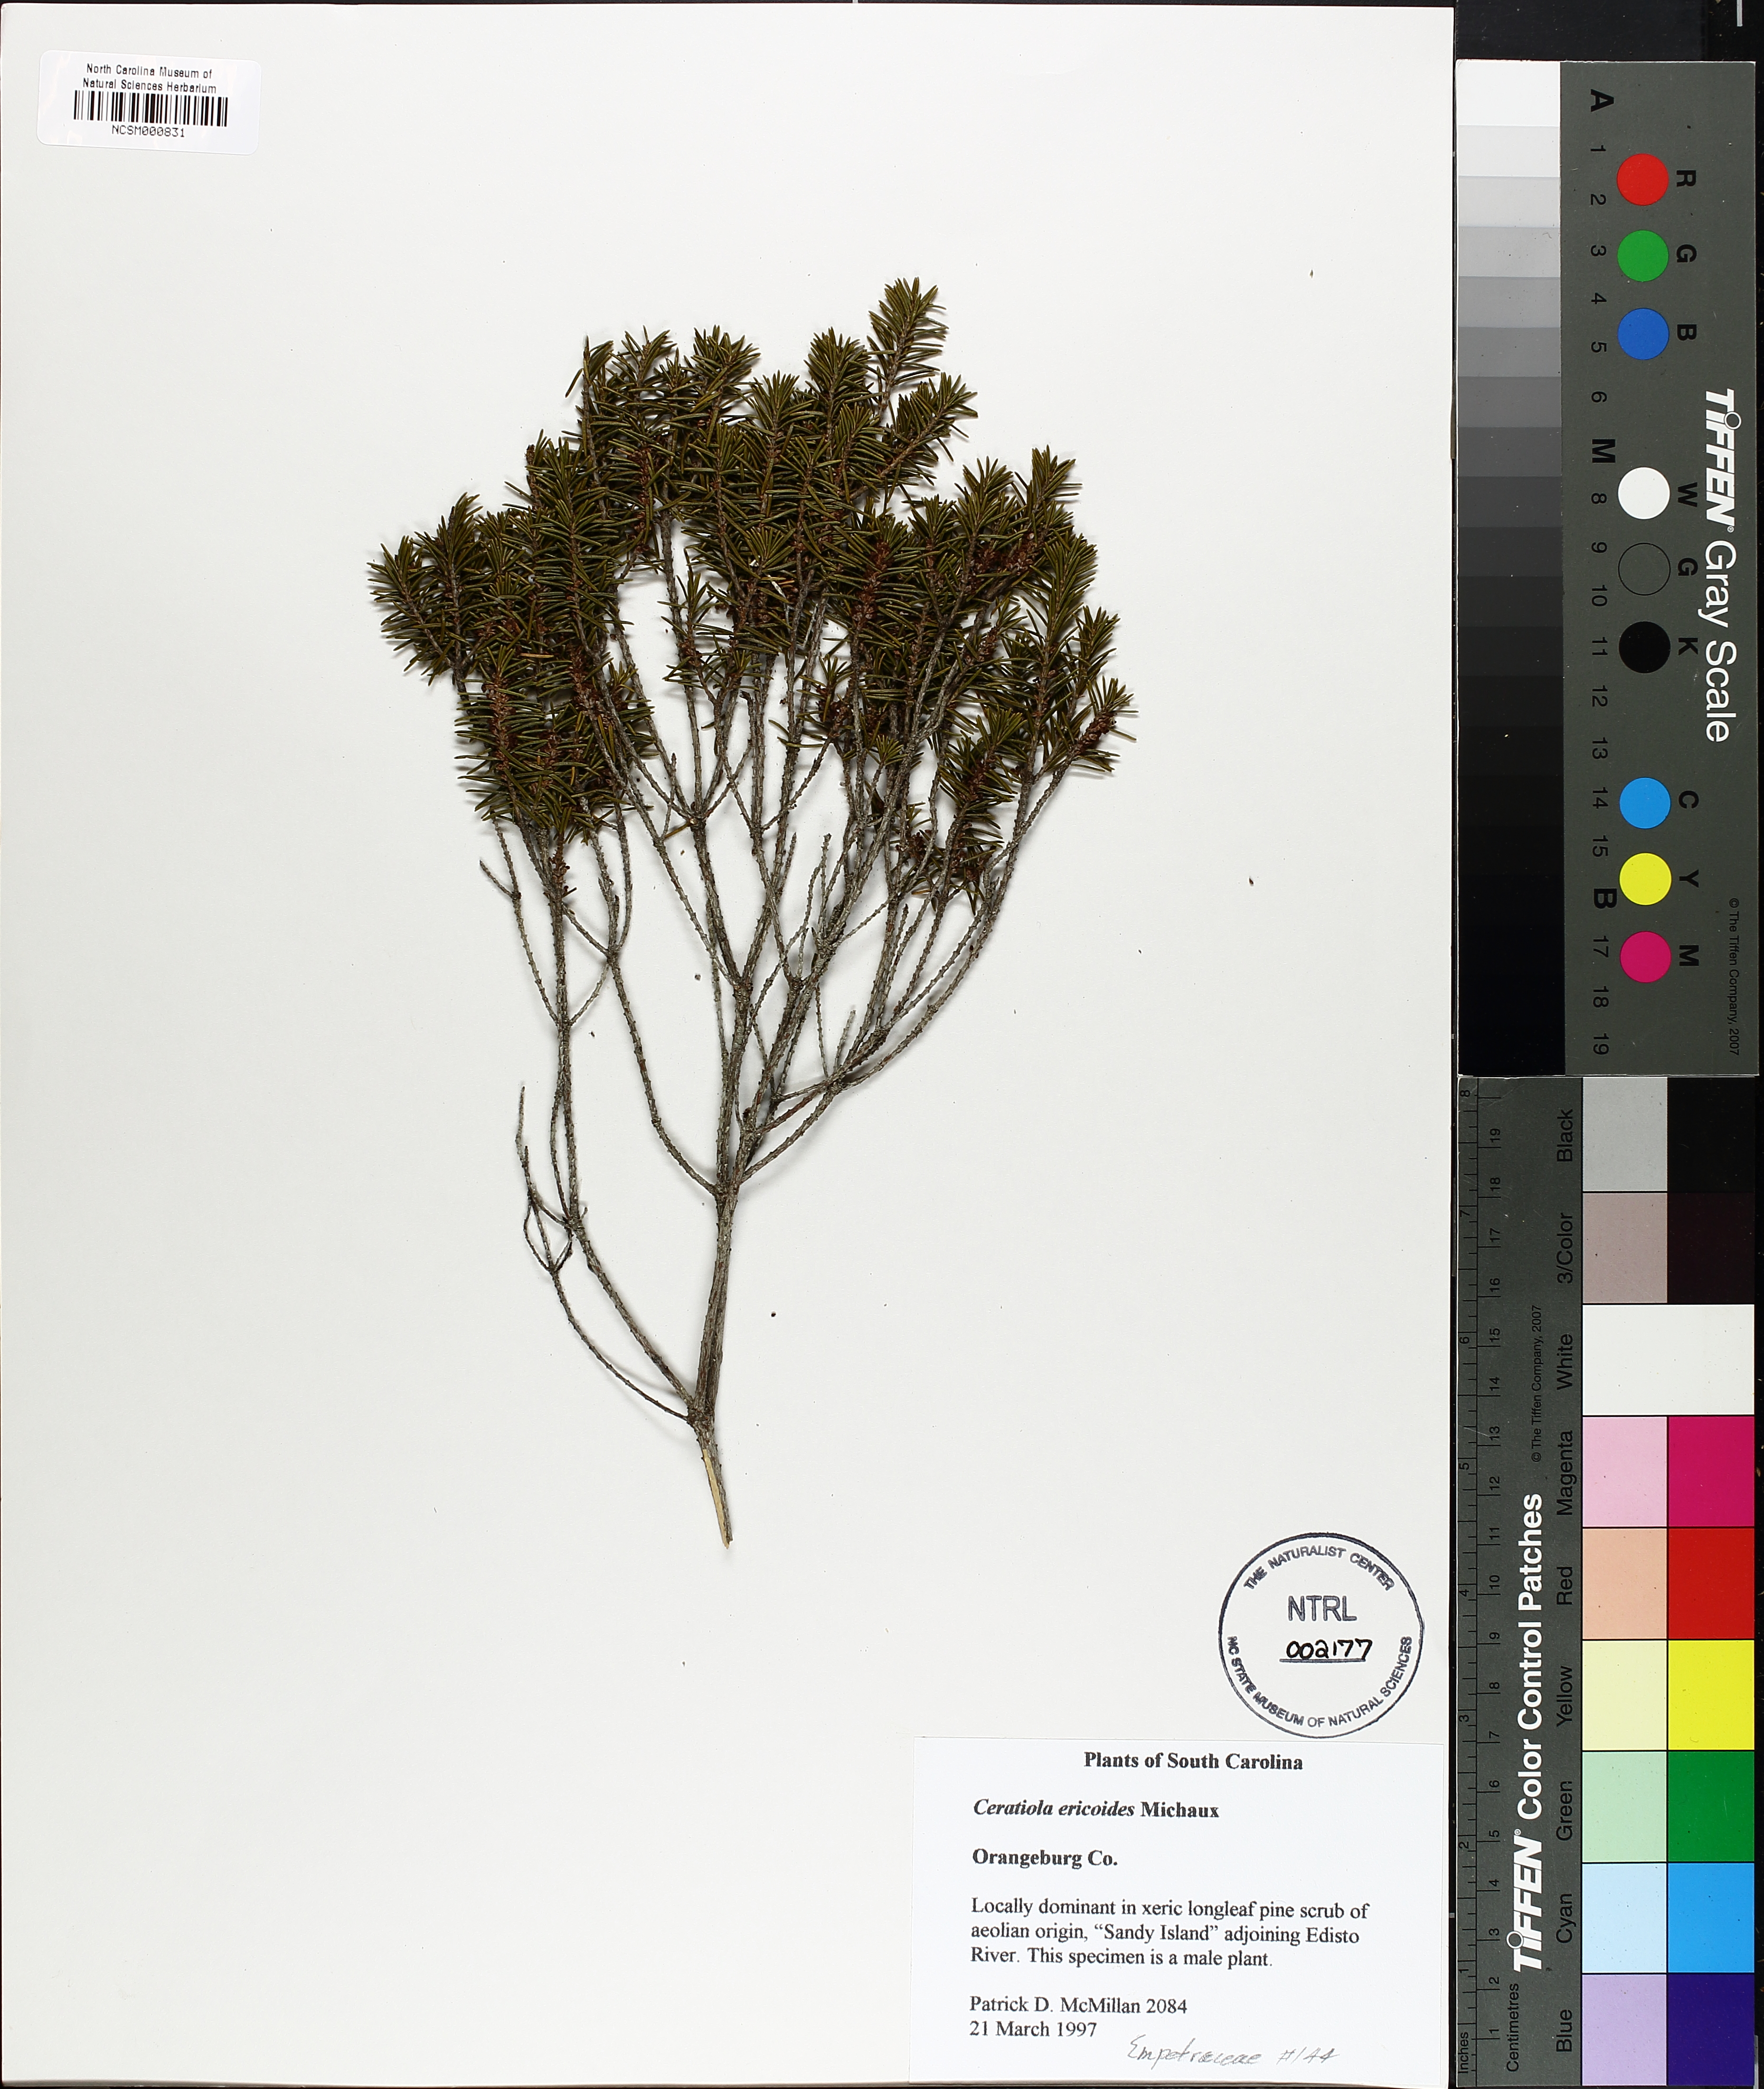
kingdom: Plantae
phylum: Tracheophyta
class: Magnoliopsida
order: Ericales
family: Ericaceae
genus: Ceratiola
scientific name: Ceratiola ericoides
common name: Sandhill-rosemary
